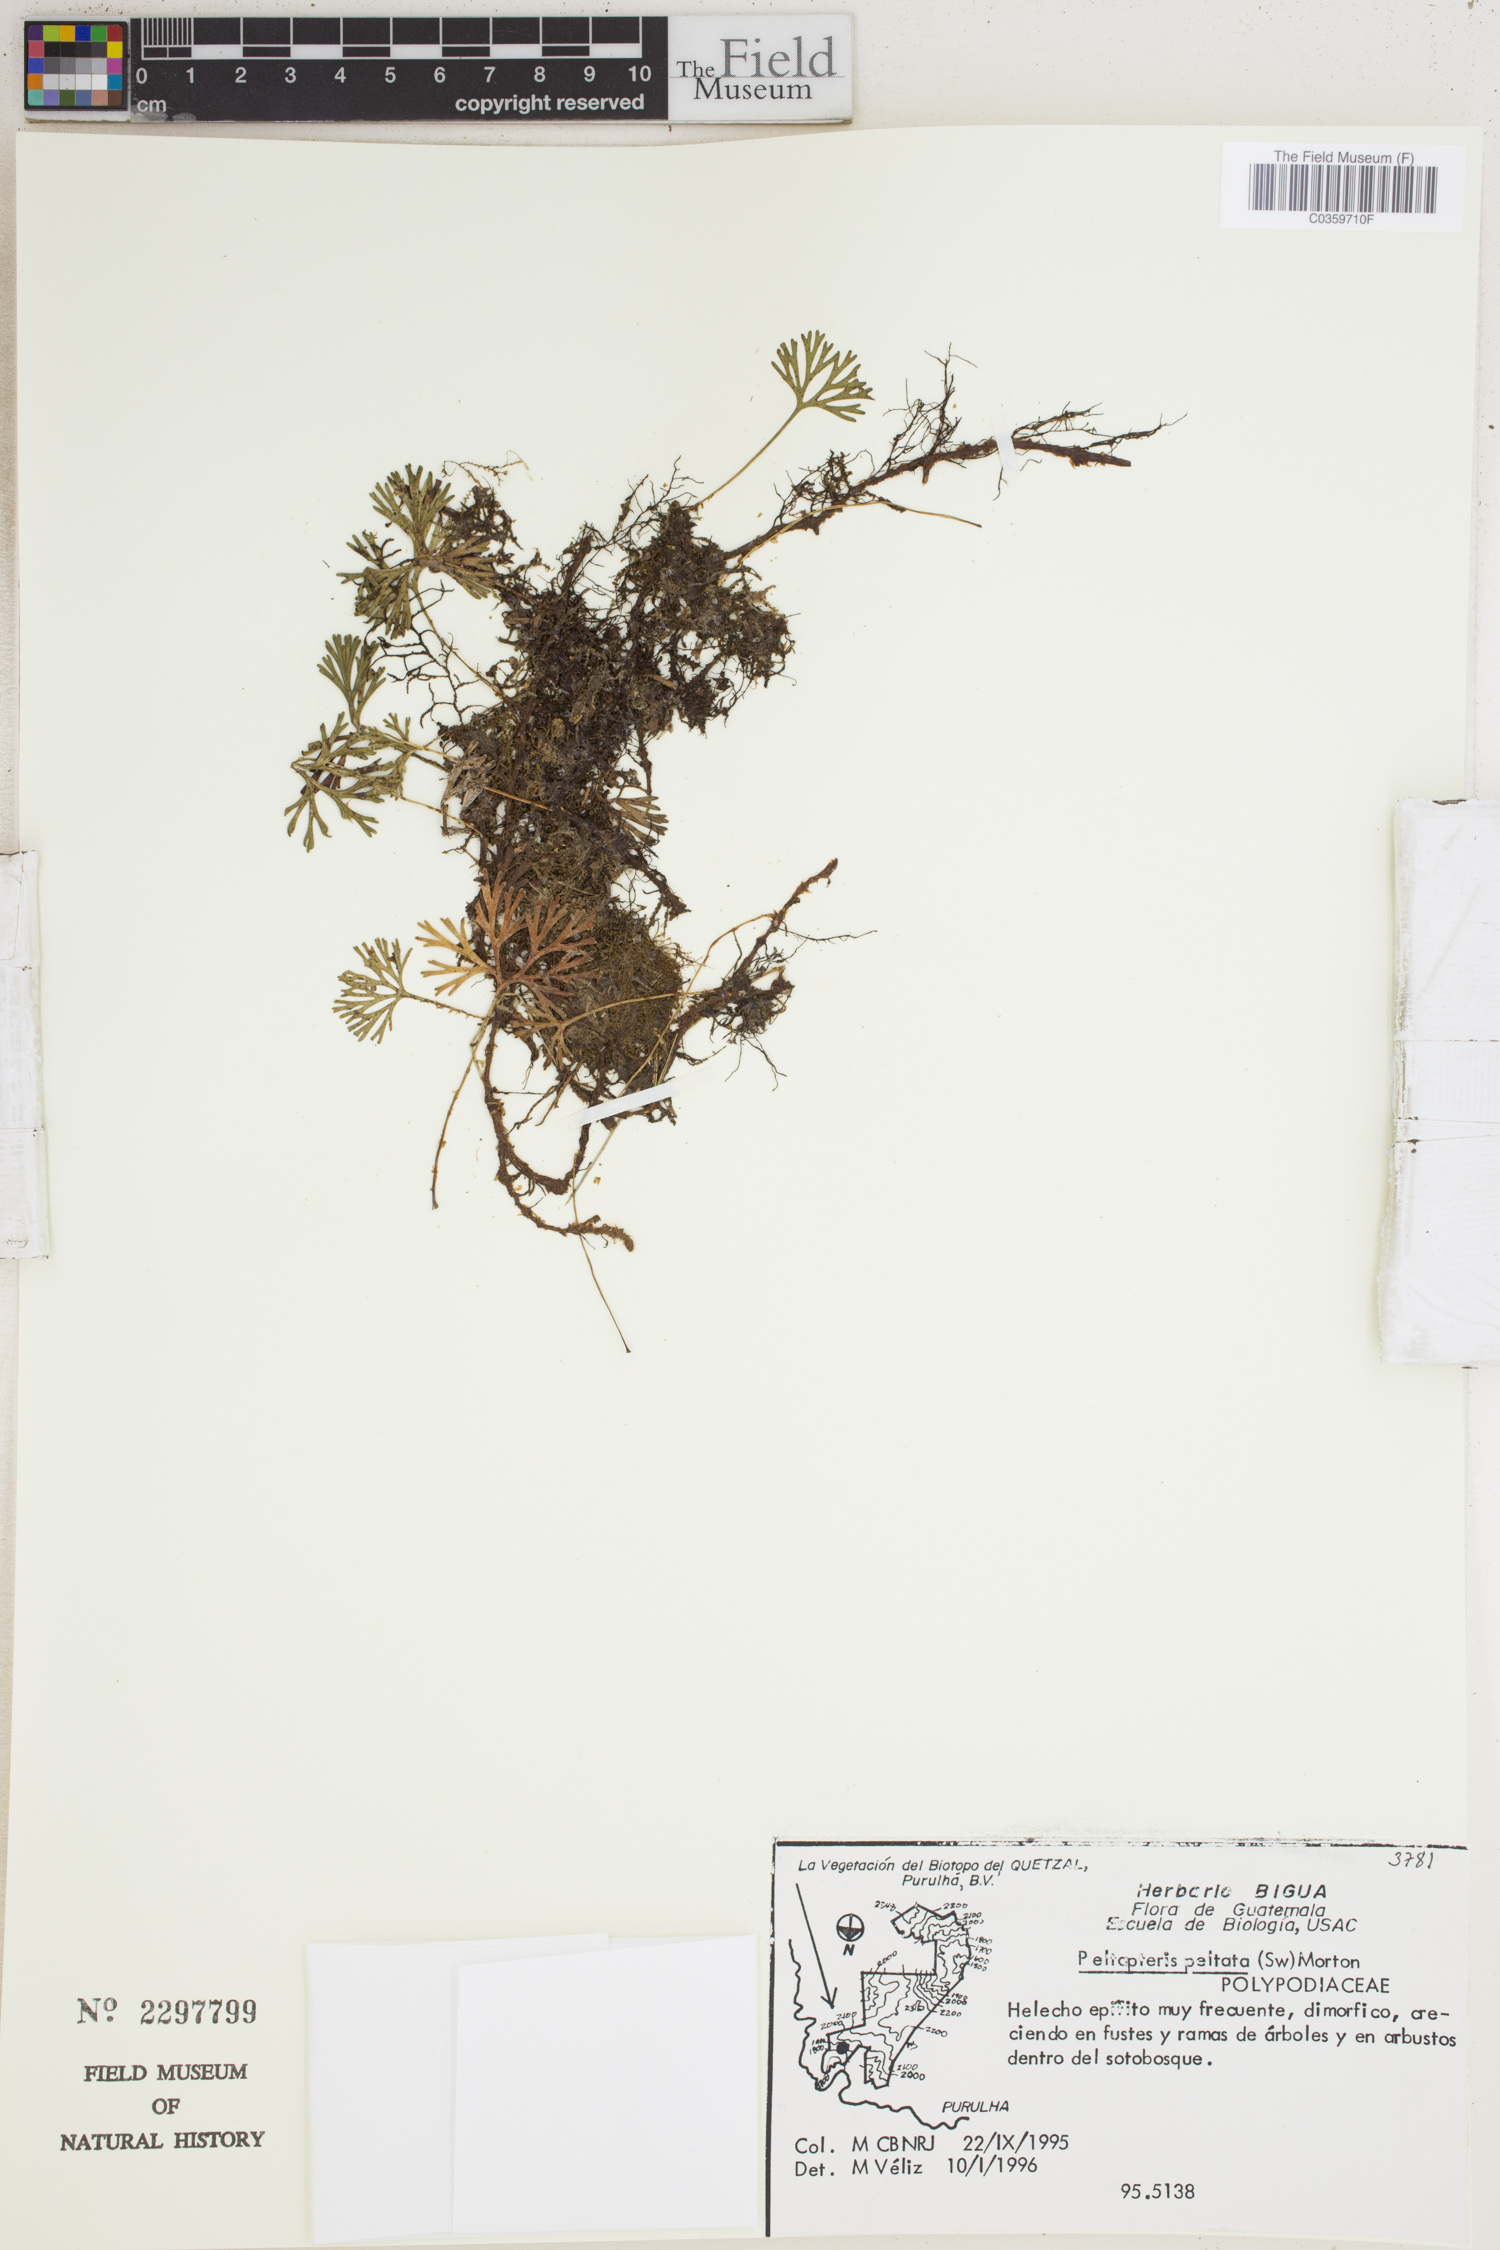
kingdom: Plantae
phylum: Tracheophyta
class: Polypodiopsida
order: Polypodiales
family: Dryopteridaceae
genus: Elaphoglossum
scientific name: Elaphoglossum peltatum
